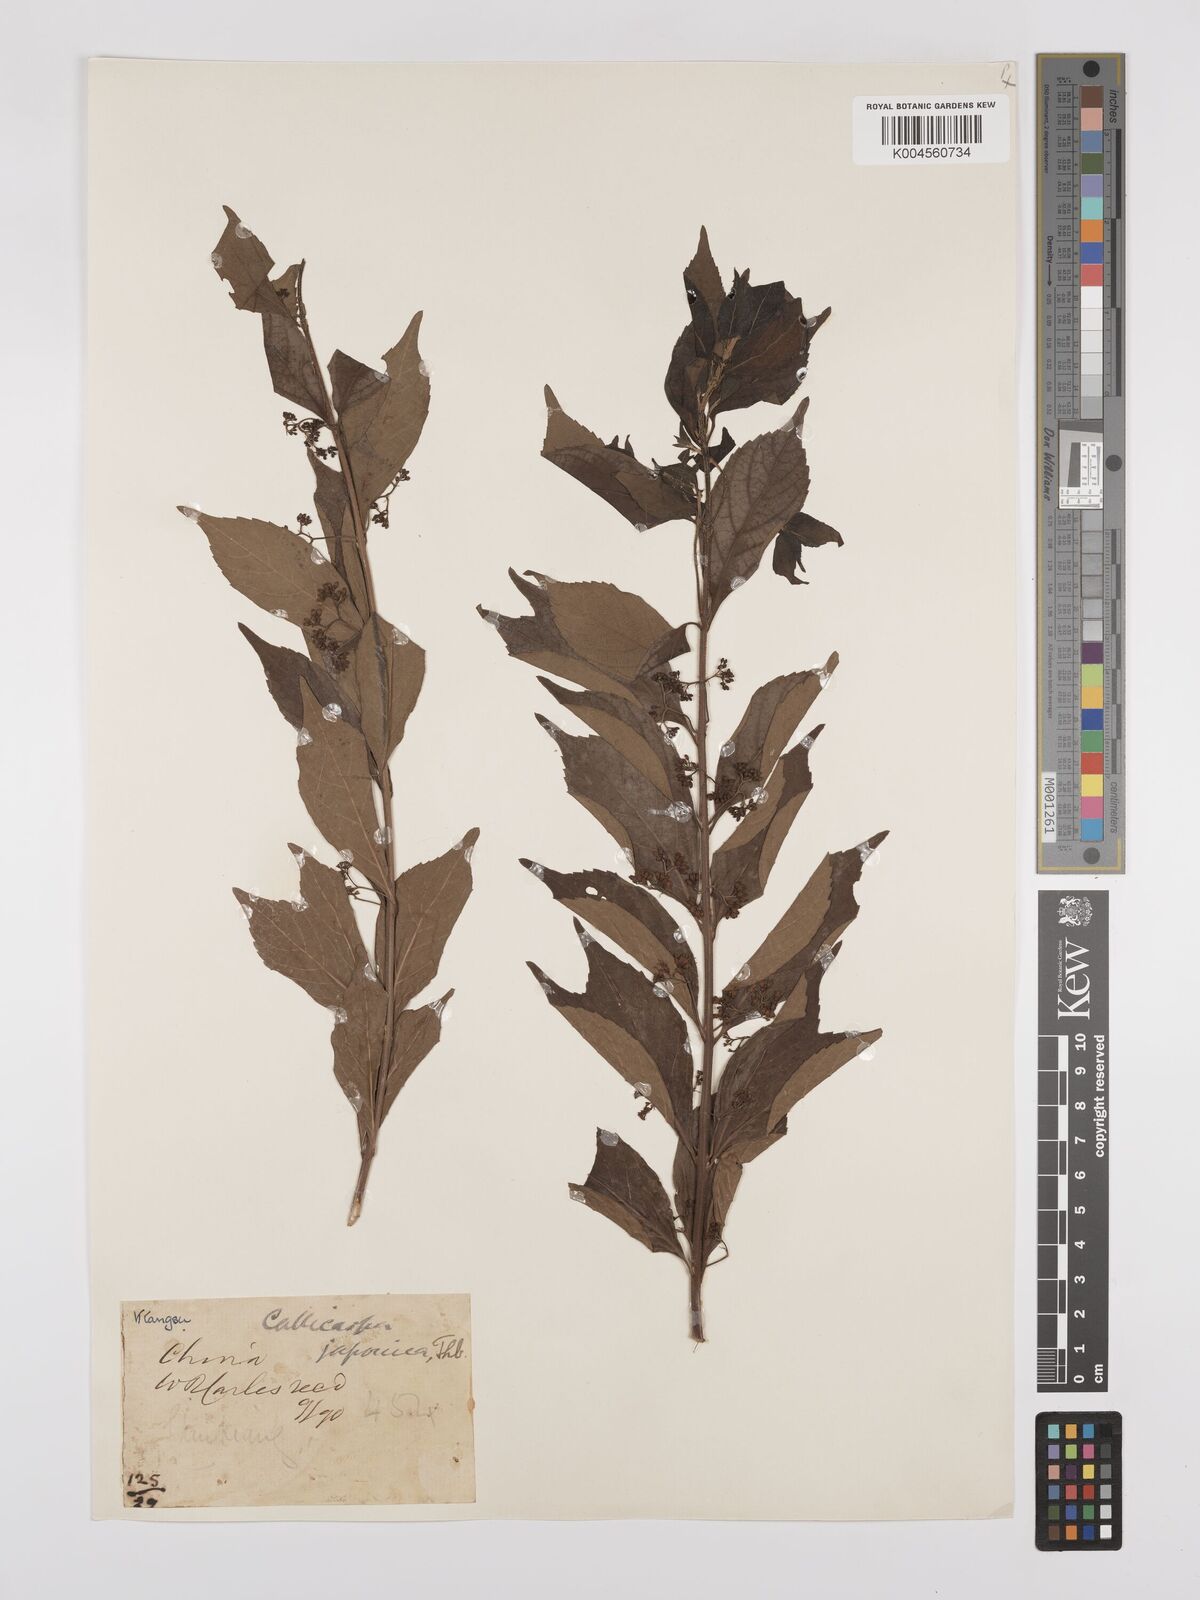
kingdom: Plantae
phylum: Tracheophyta
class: Magnoliopsida
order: Lamiales
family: Lamiaceae
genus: Callicarpa
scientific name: Callicarpa japonica
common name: Japanese beauty-berry
